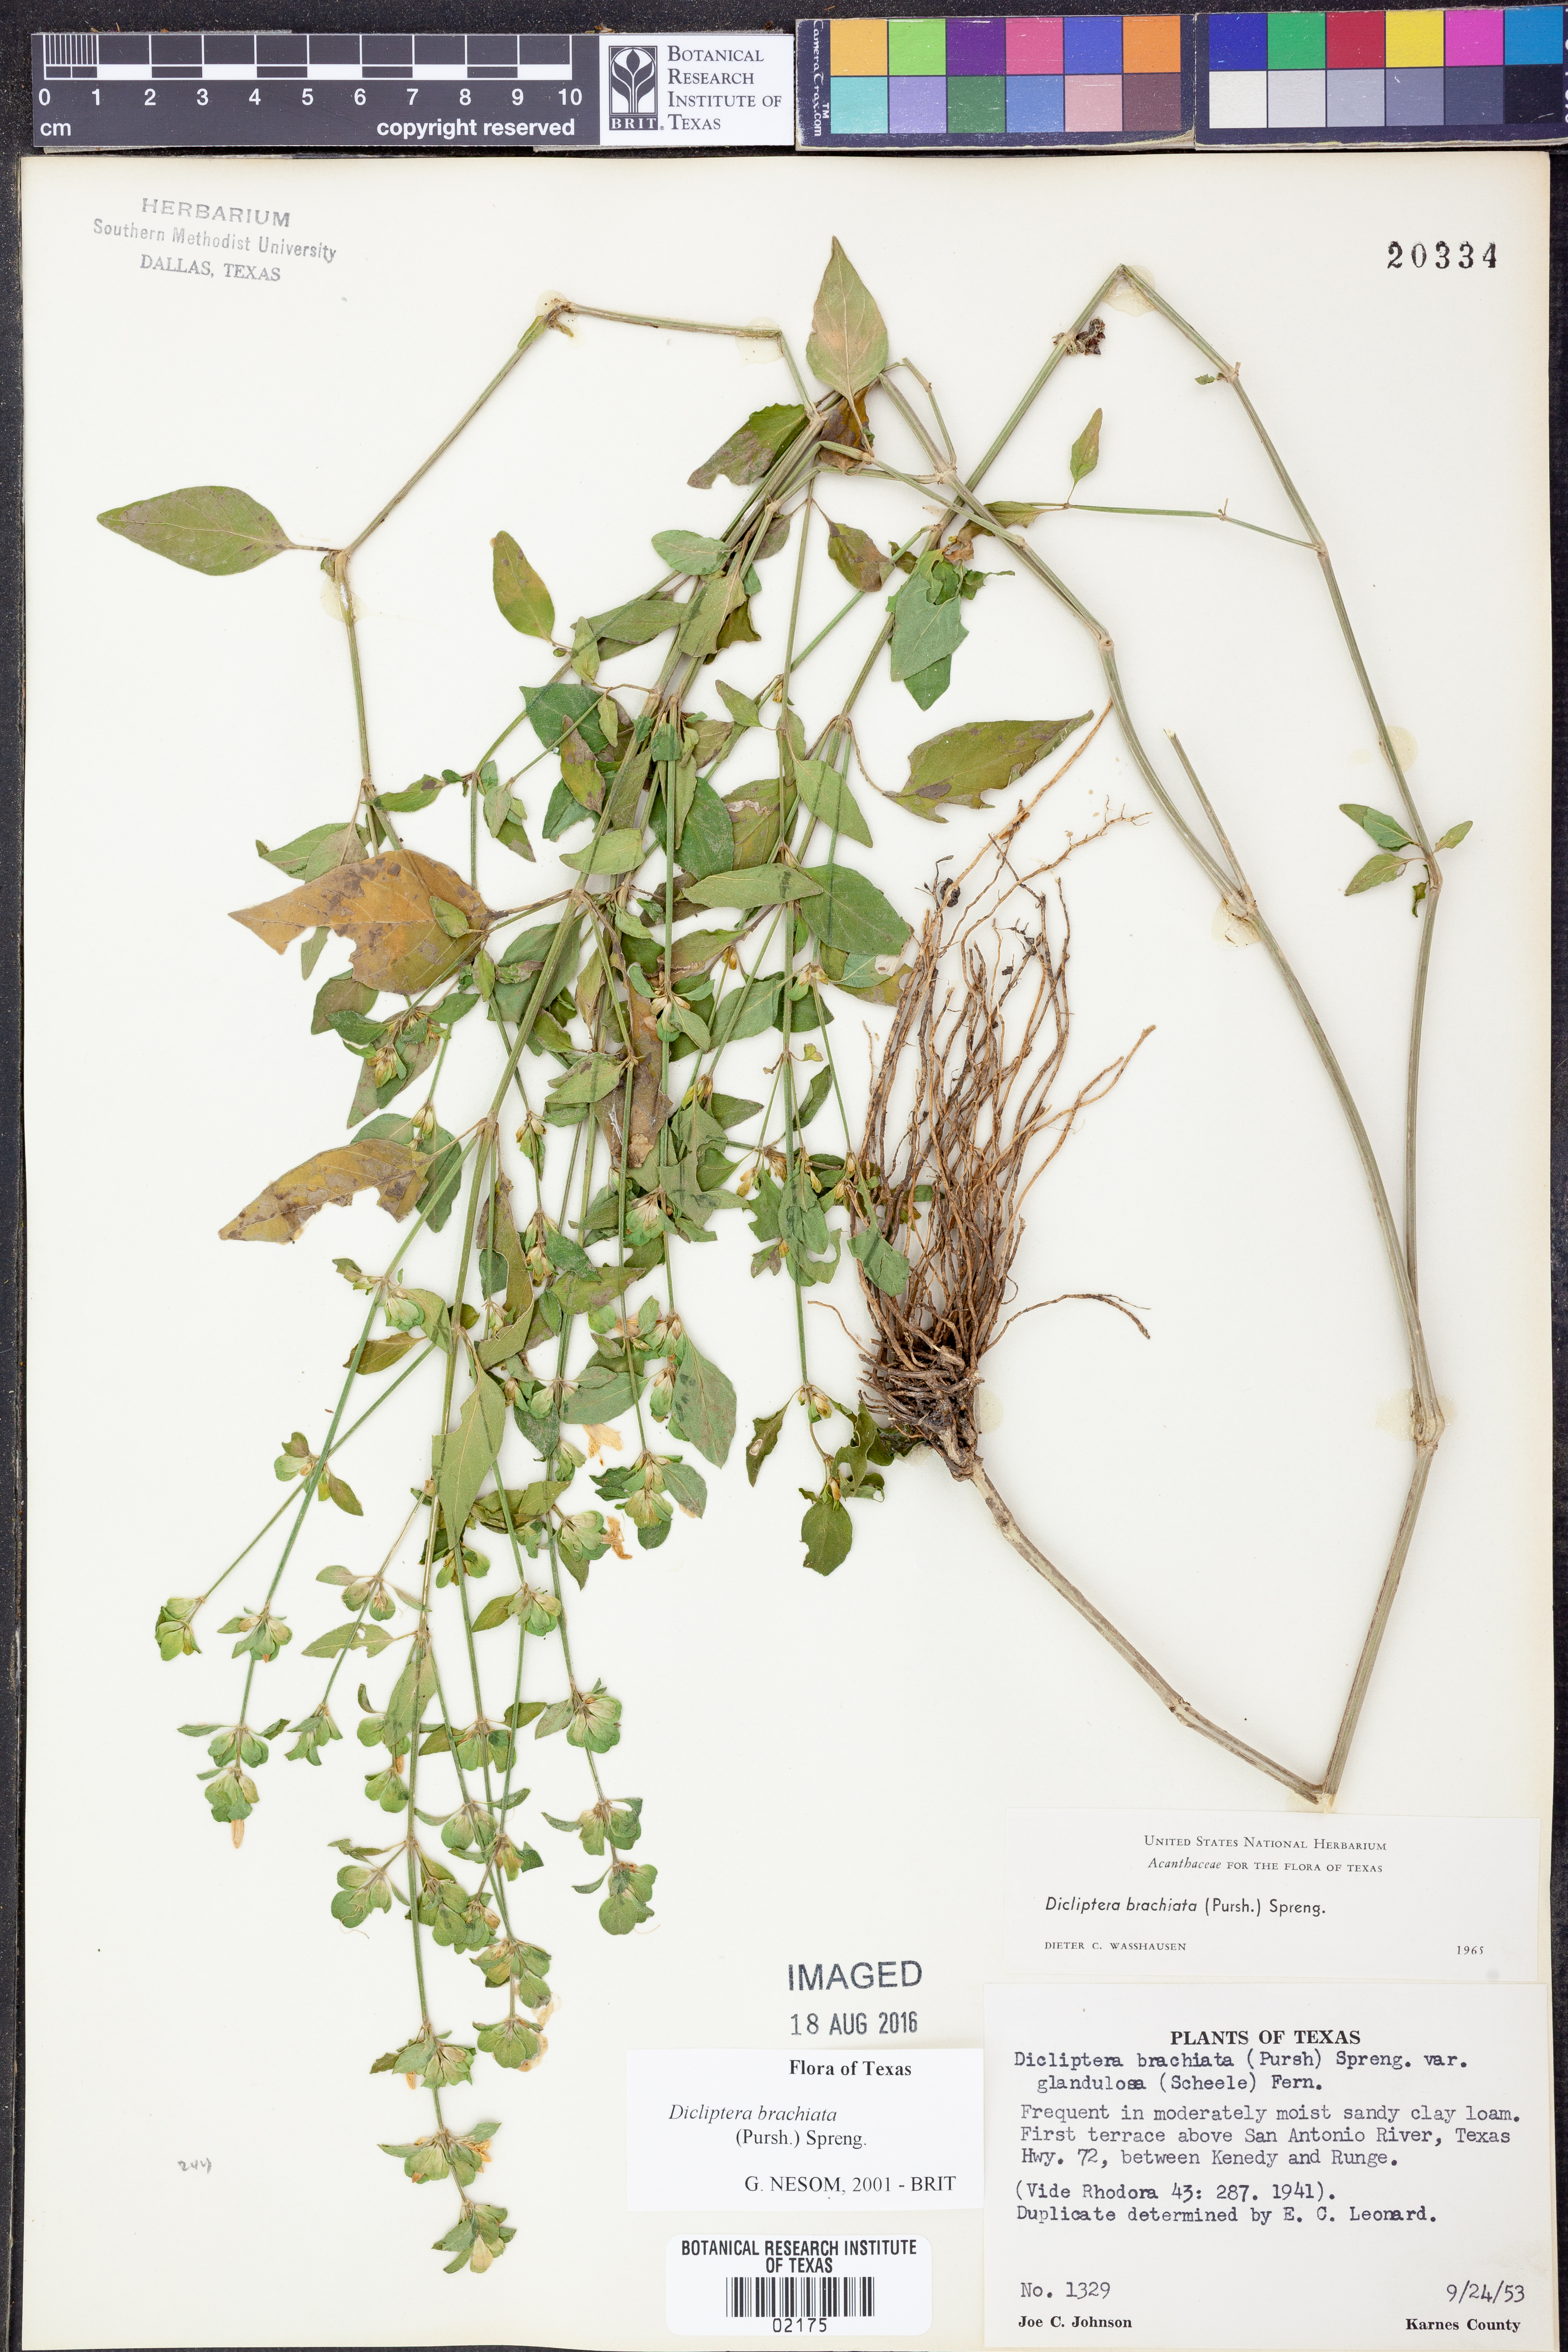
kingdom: Plantae
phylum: Tracheophyta
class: Magnoliopsida
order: Lamiales
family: Acanthaceae
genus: Dicliptera
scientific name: Dicliptera brachiata
